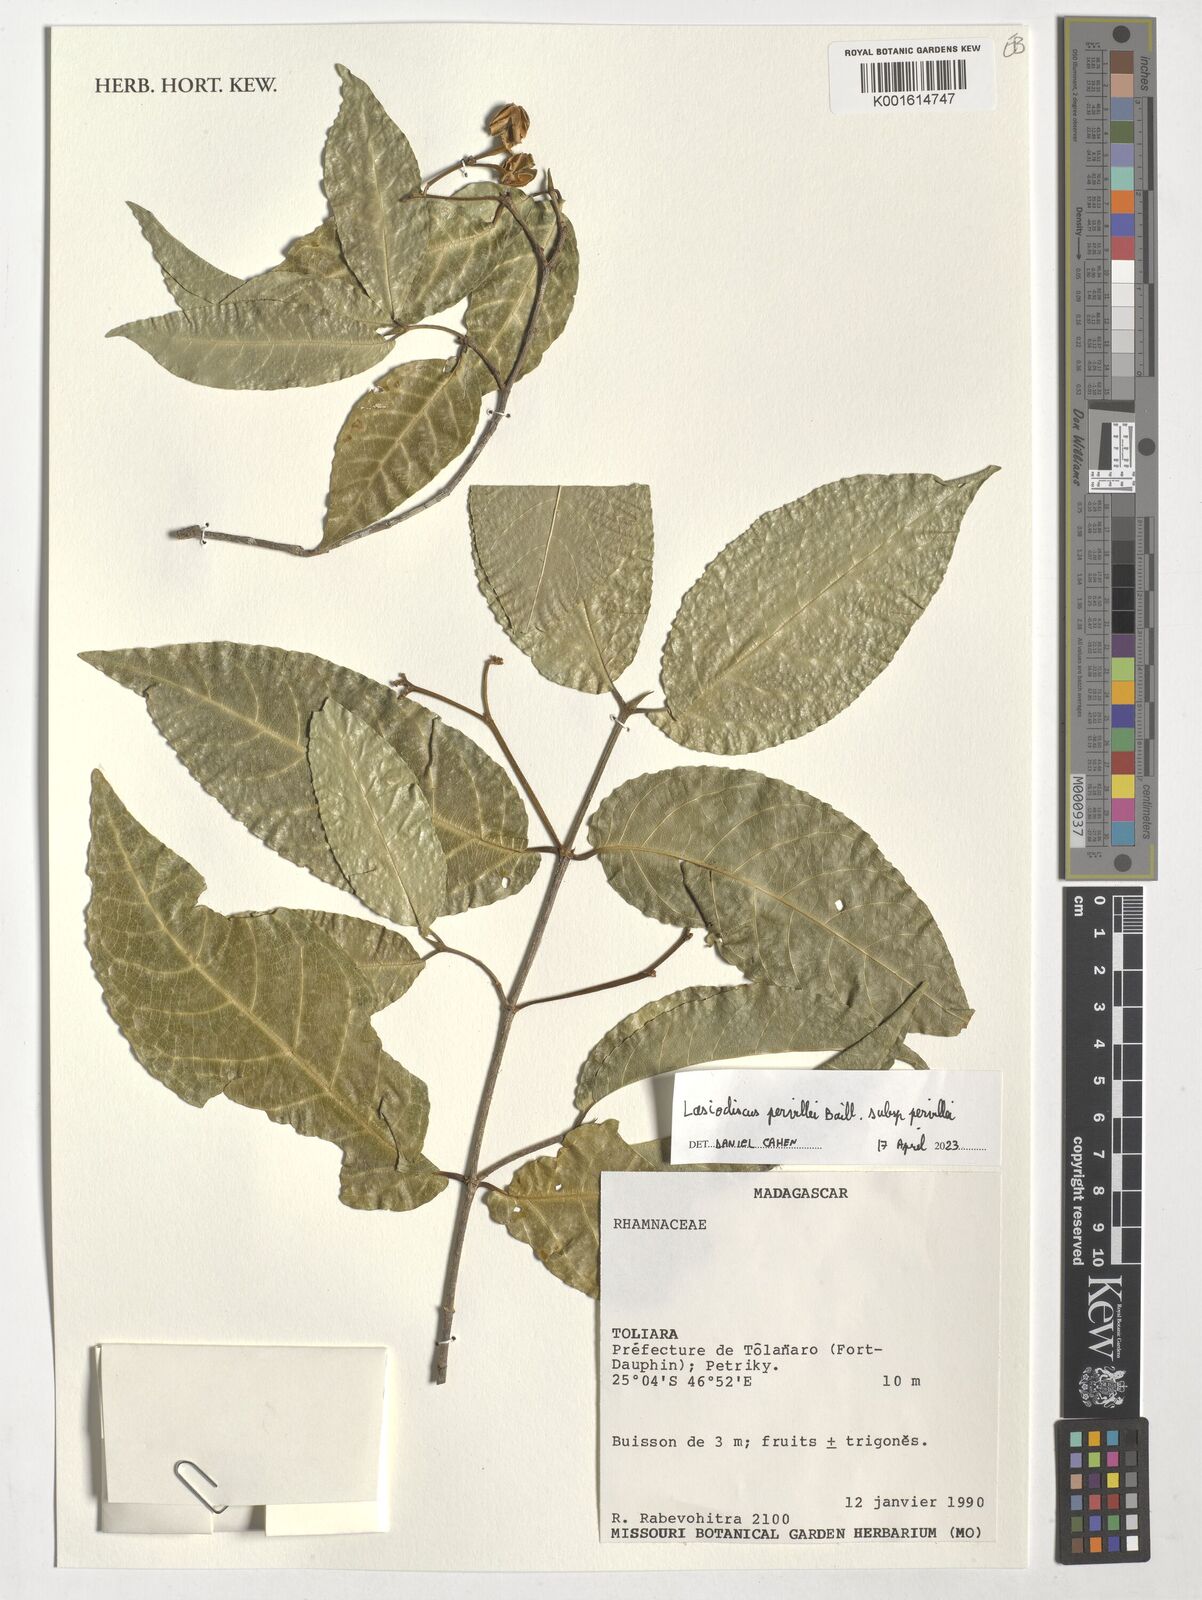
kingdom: Plantae
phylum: Tracheophyta
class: Magnoliopsida
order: Rosales
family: Rhamnaceae
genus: Lasiodiscus
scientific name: Lasiodiscus pervillei
